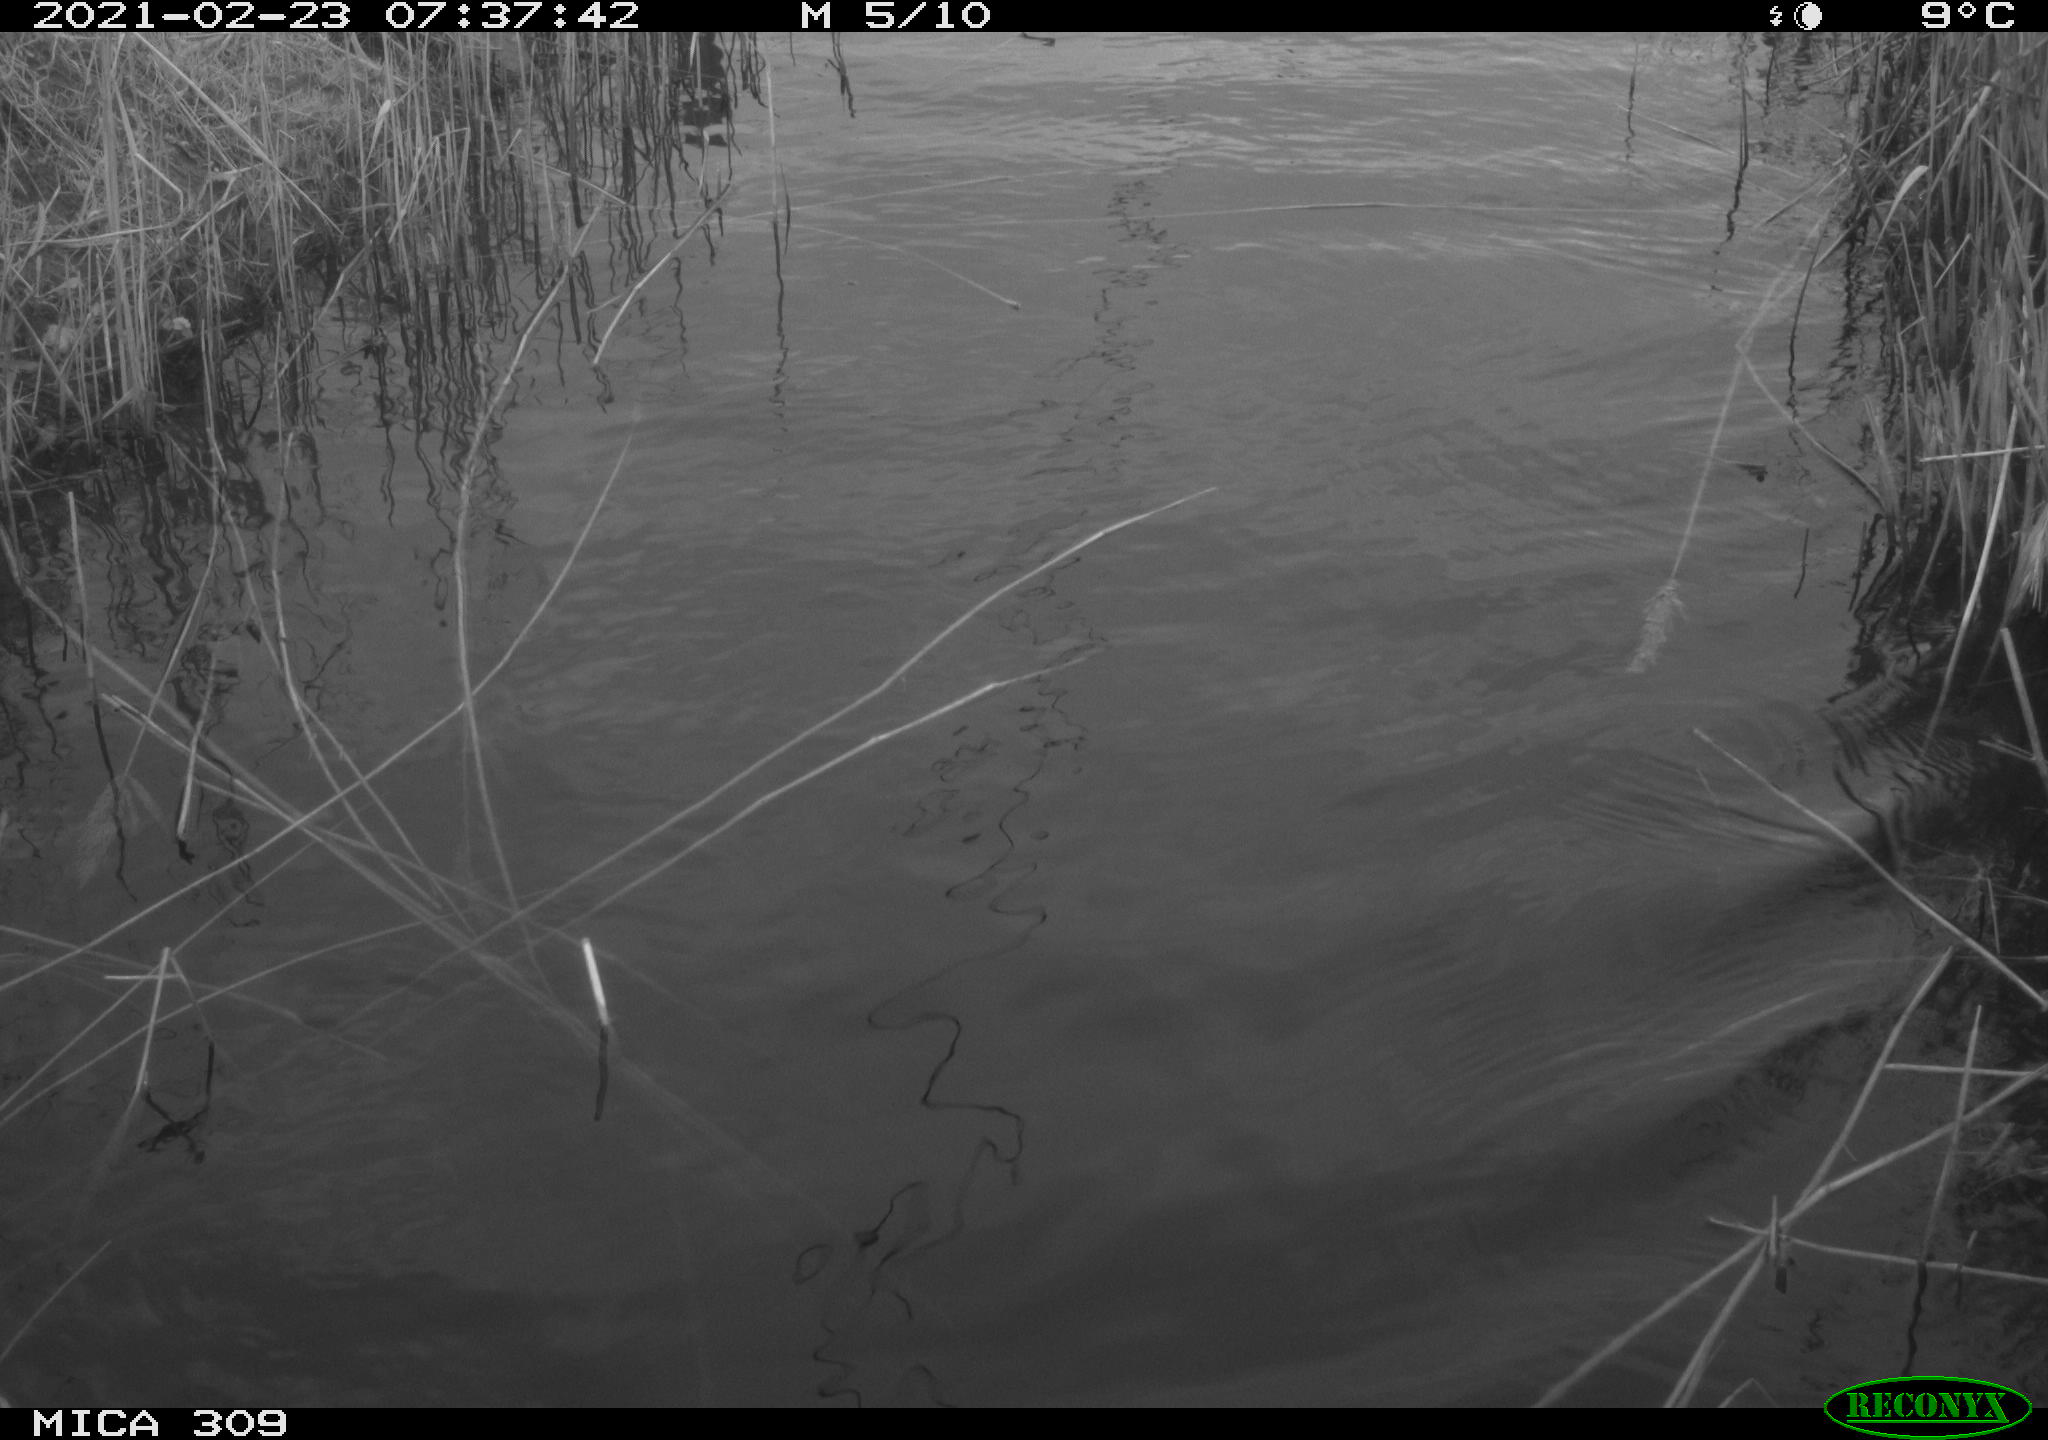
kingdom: Animalia
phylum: Chordata
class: Aves
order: Gruiformes
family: Rallidae
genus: Fulica
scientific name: Fulica atra
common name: Eurasian coot
